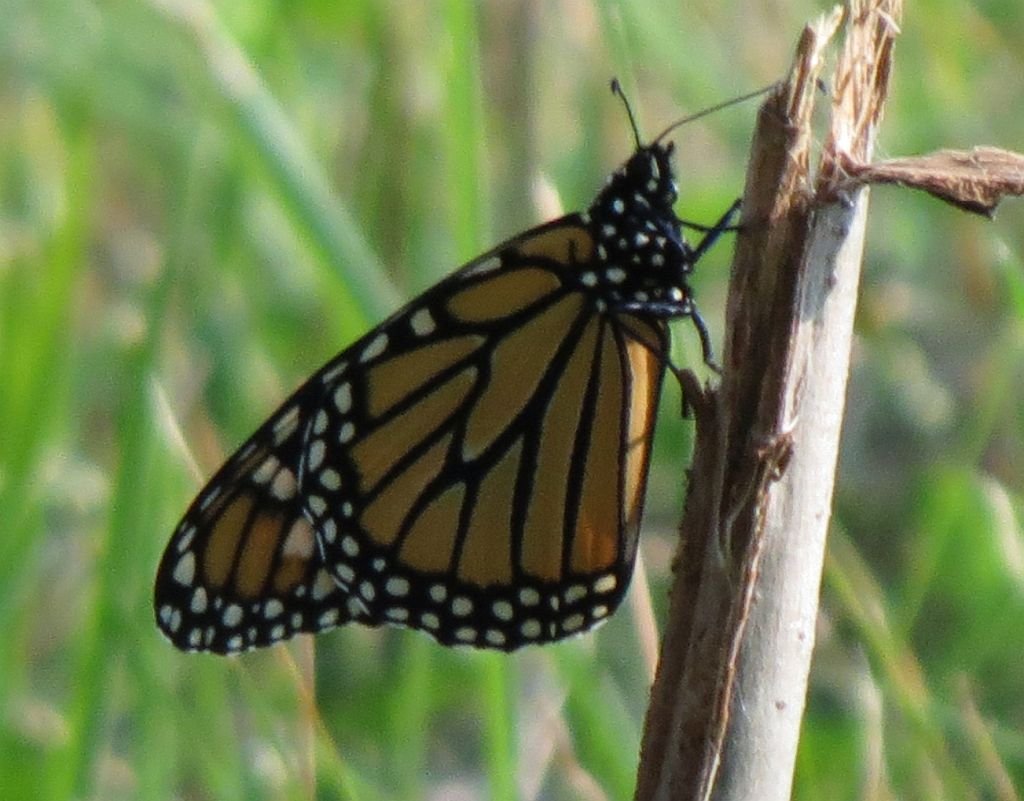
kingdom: Animalia
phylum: Arthropoda
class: Insecta
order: Lepidoptera
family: Nymphalidae
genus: Danaus
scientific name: Danaus plexippus
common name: Monarch
